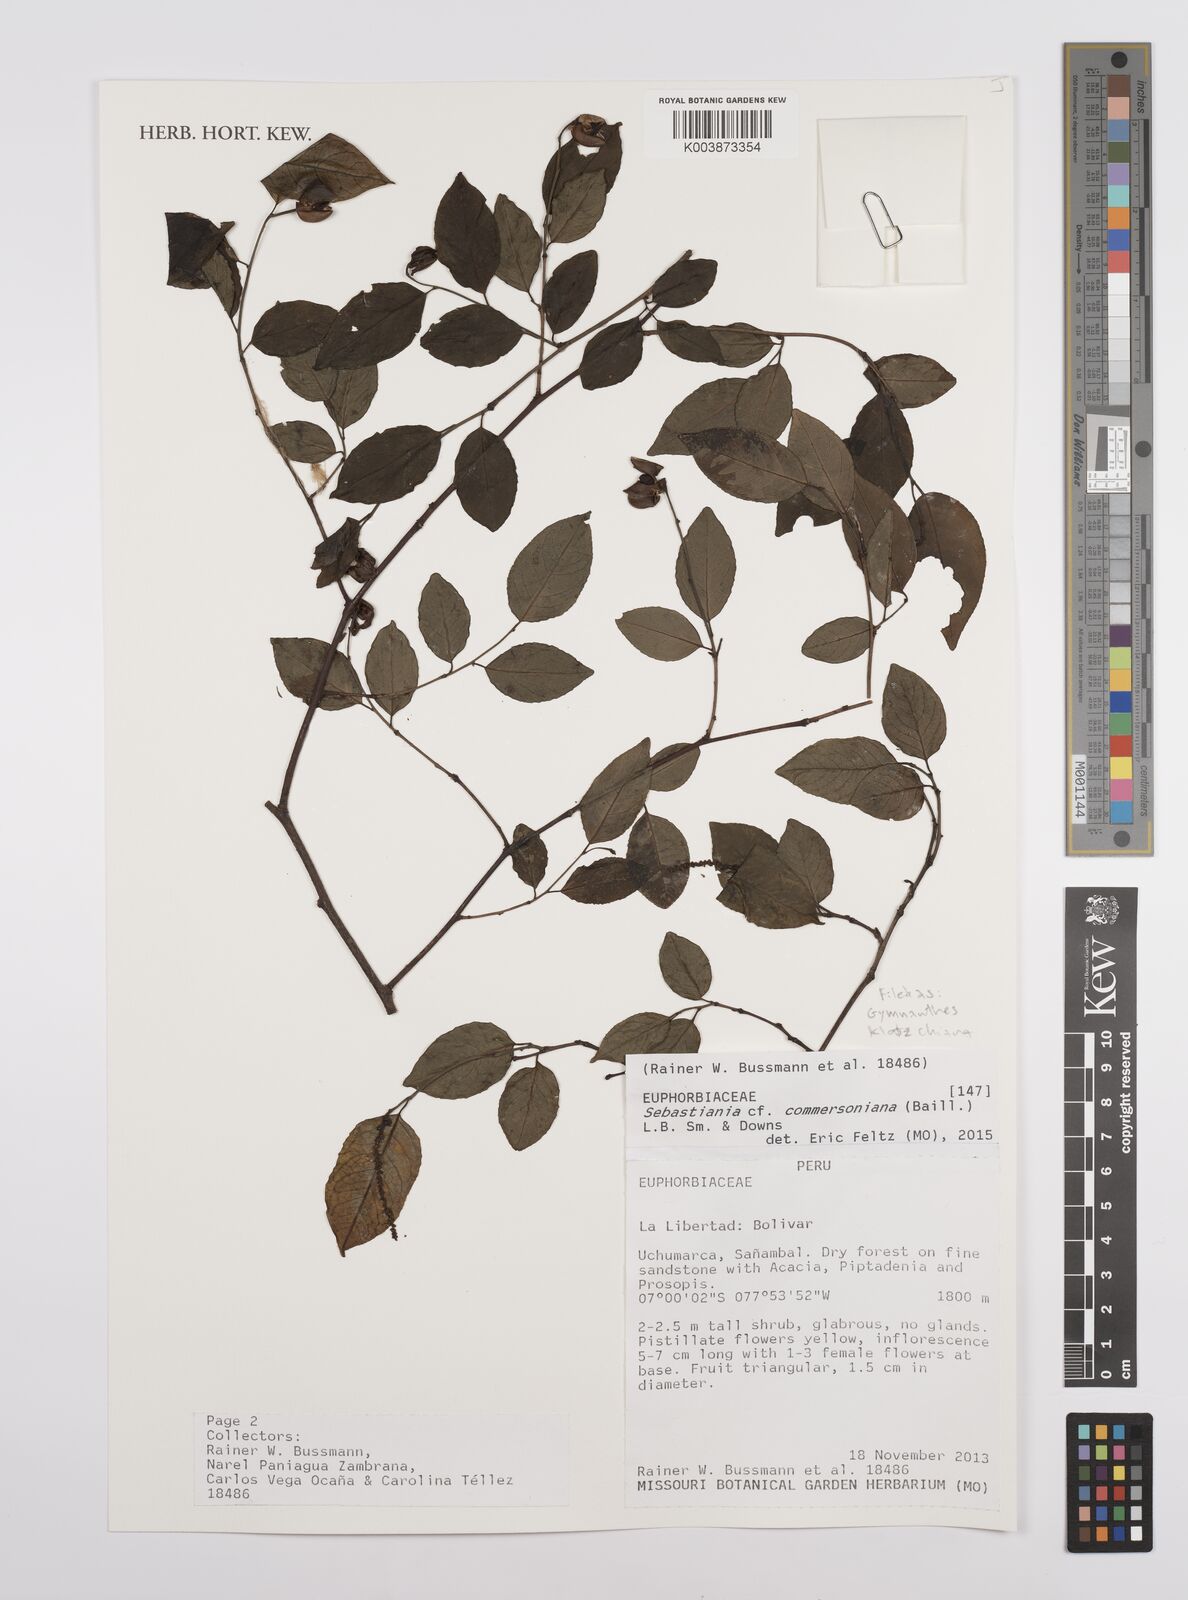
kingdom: Plantae
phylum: Tracheophyta
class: Magnoliopsida
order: Malpighiales
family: Euphorbiaceae
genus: Sebastiania
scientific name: Sebastiania klotzschiana
